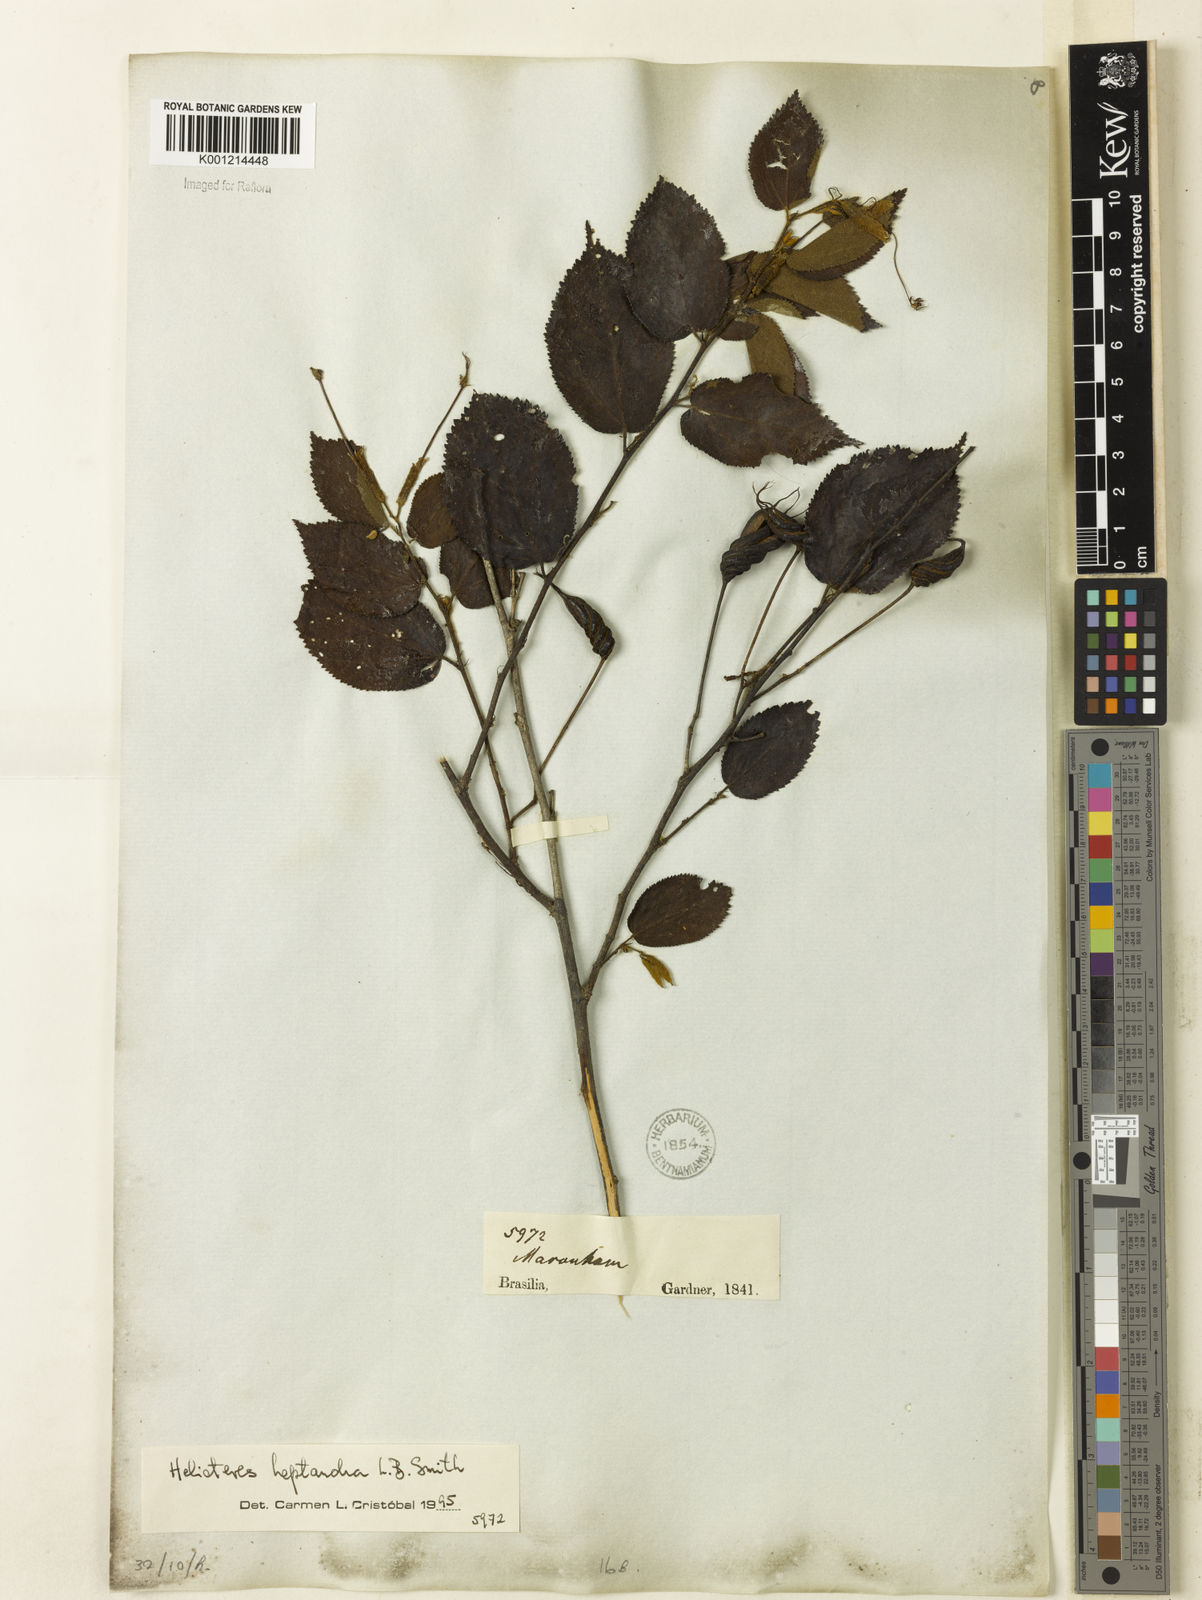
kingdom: Plantae
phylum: Tracheophyta
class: Magnoliopsida
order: Malvales
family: Malvaceae
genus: Helicteres
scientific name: Helicteres heptandra
